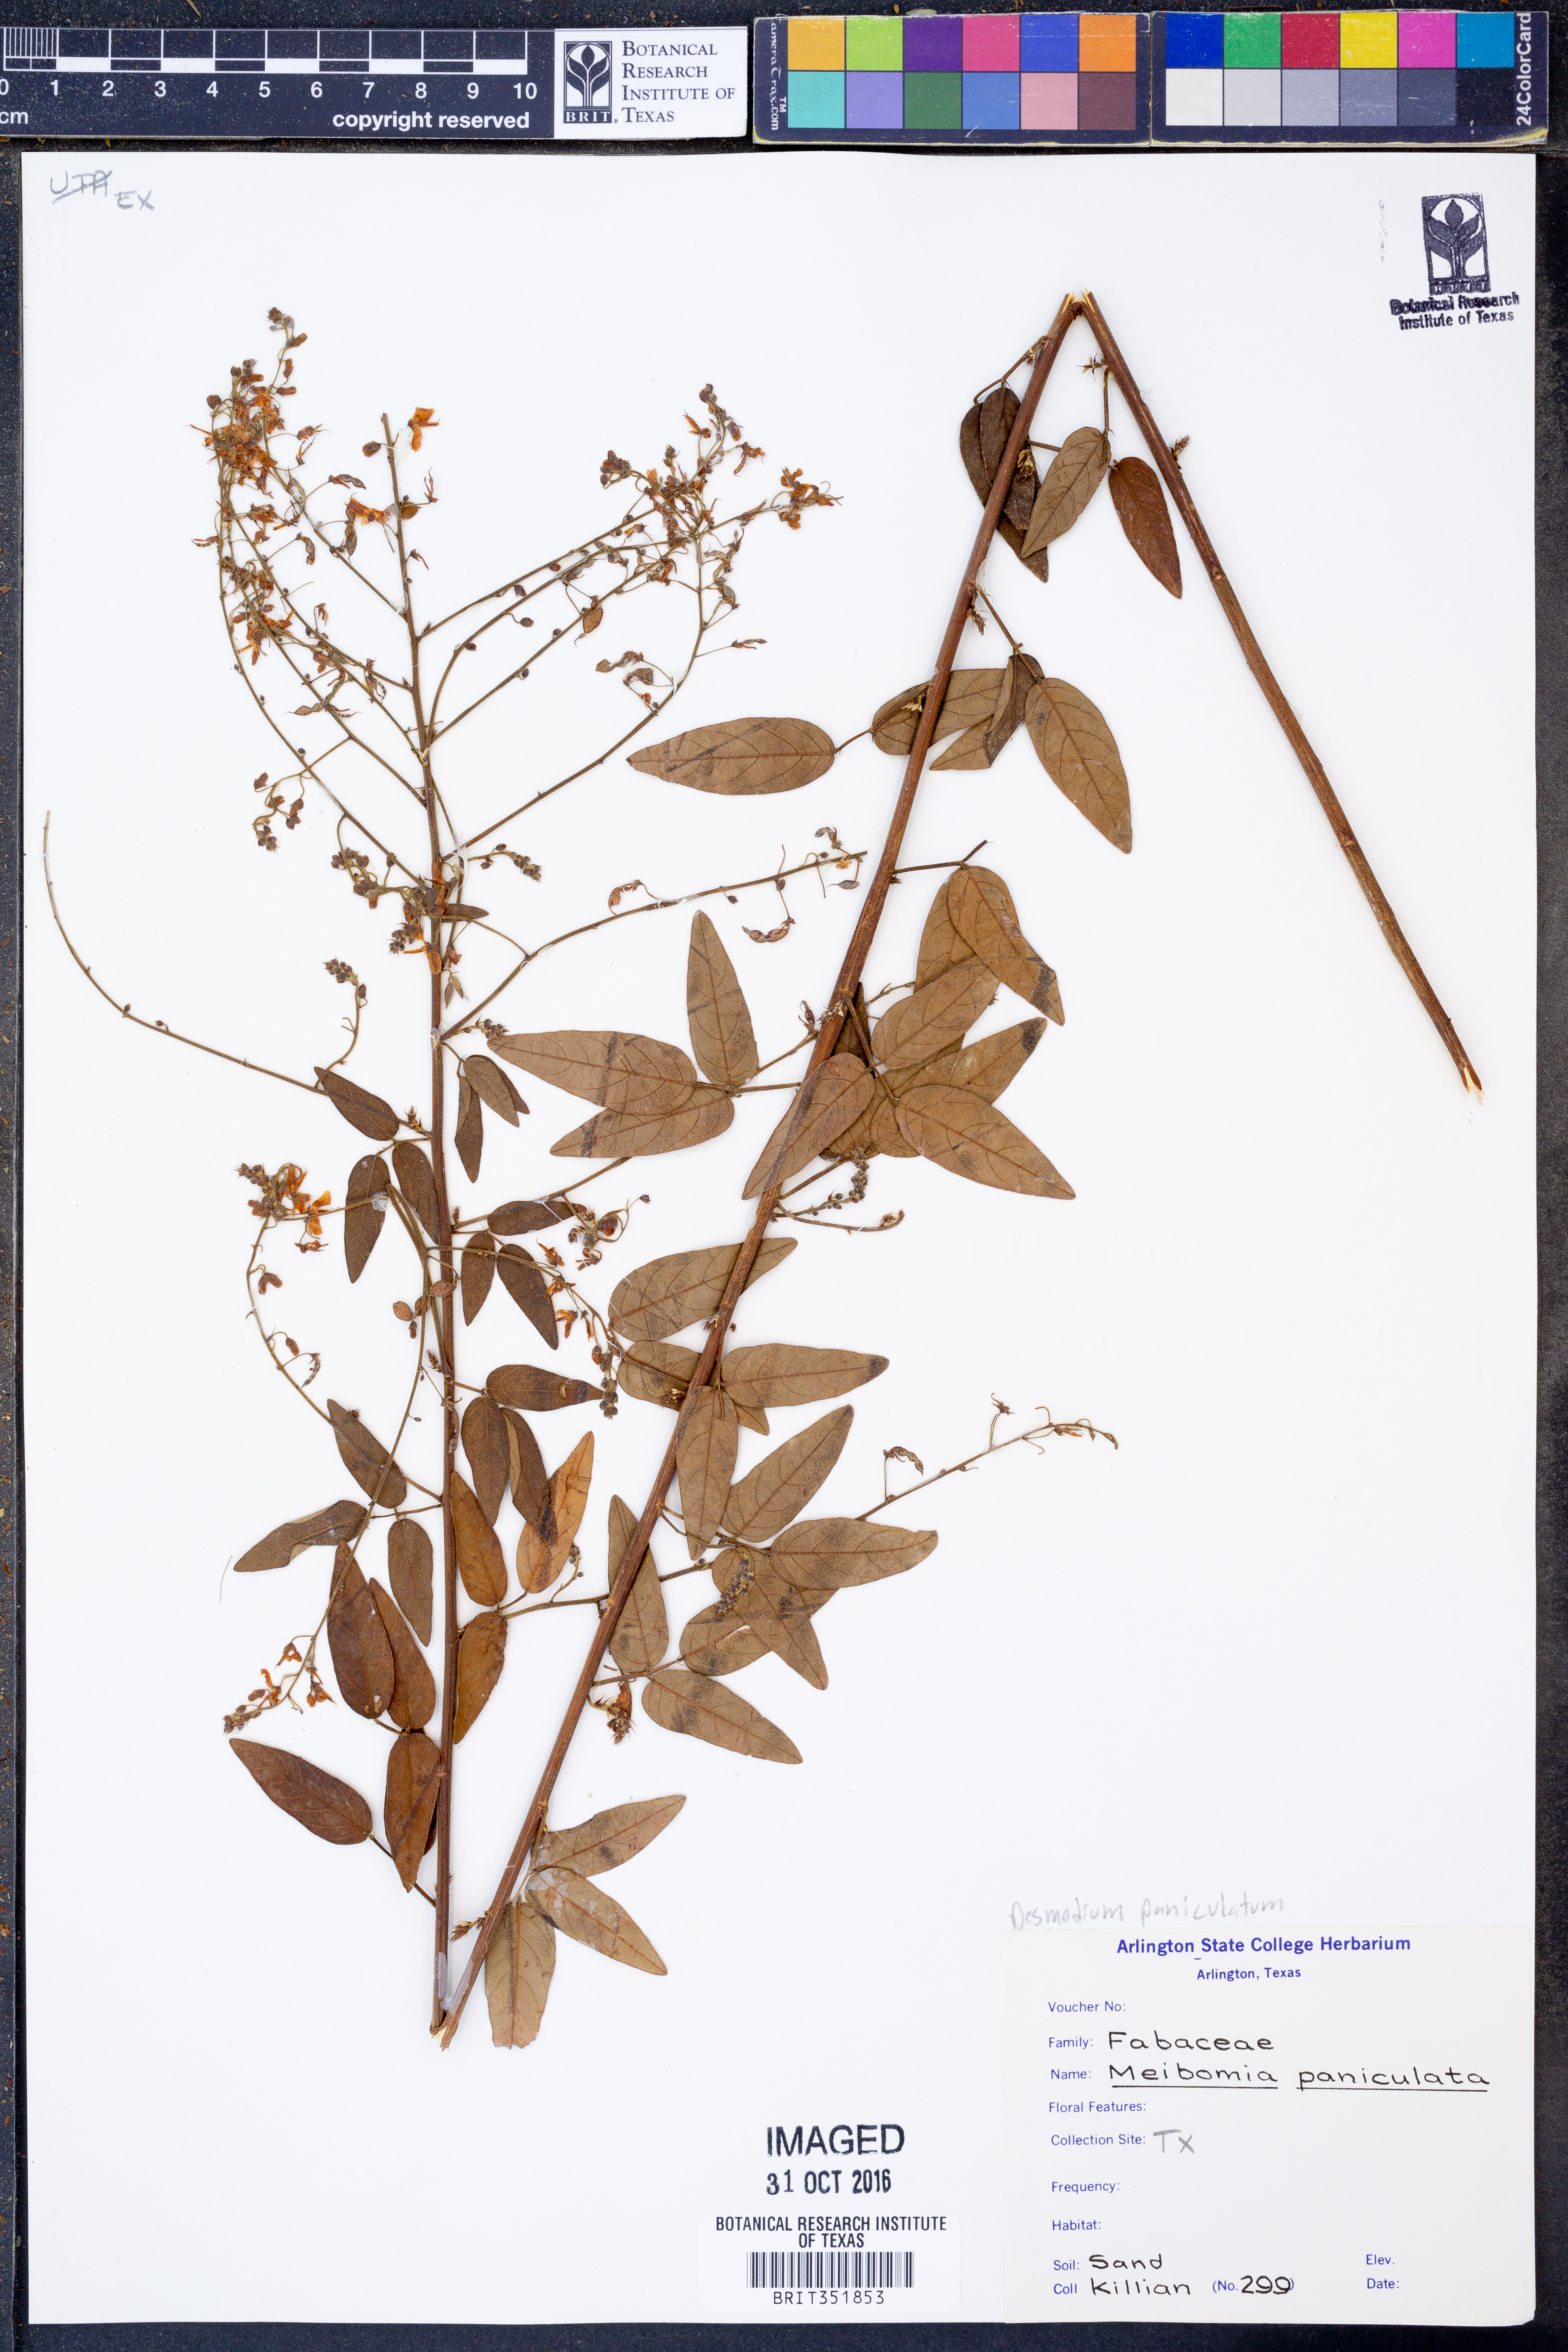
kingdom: Plantae
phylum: Tracheophyta
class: Magnoliopsida
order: Fabales
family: Fabaceae
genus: Desmodium
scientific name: Desmodium paniculatum
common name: Panicled tick-clover
